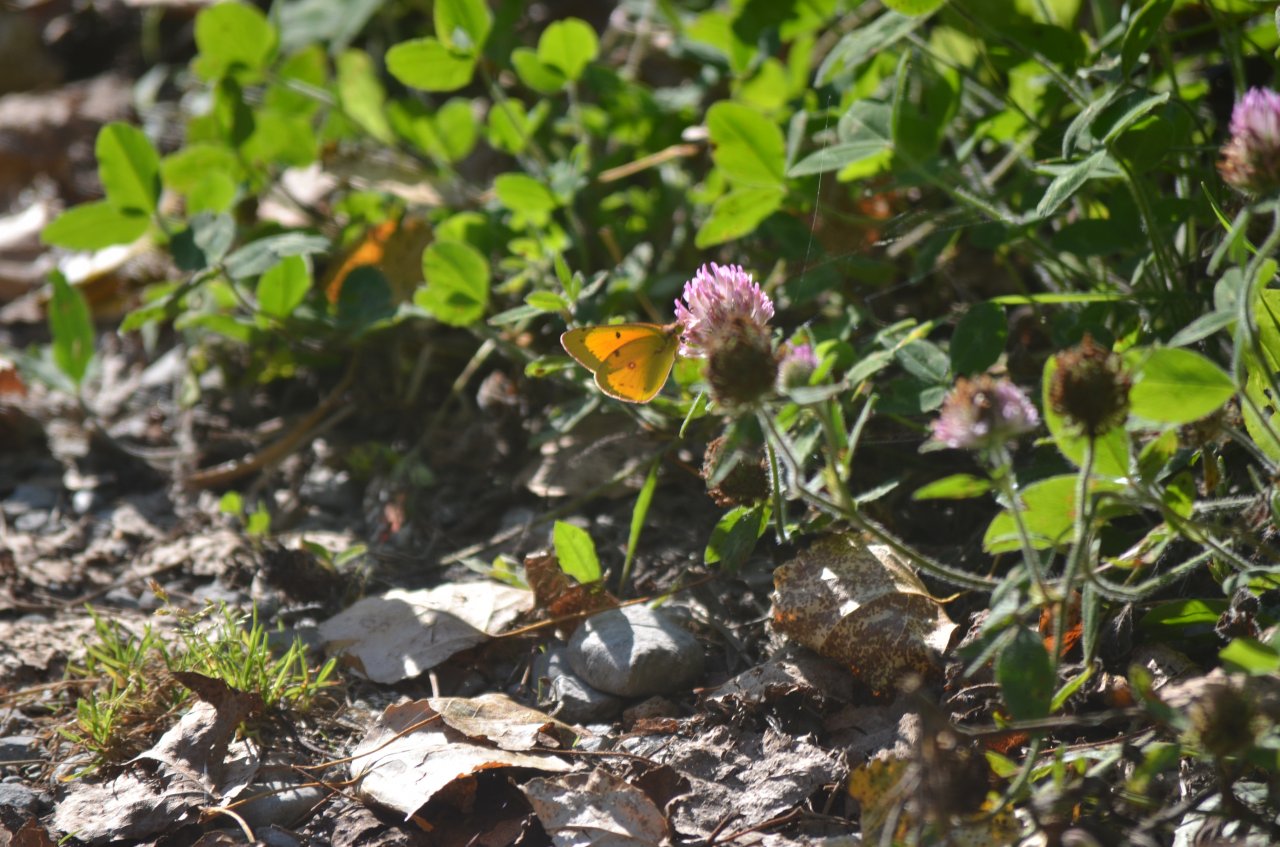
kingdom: Animalia
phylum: Arthropoda
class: Insecta
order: Lepidoptera
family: Pieridae
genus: Colias
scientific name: Colias eurytheme
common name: Orange Sulphur
